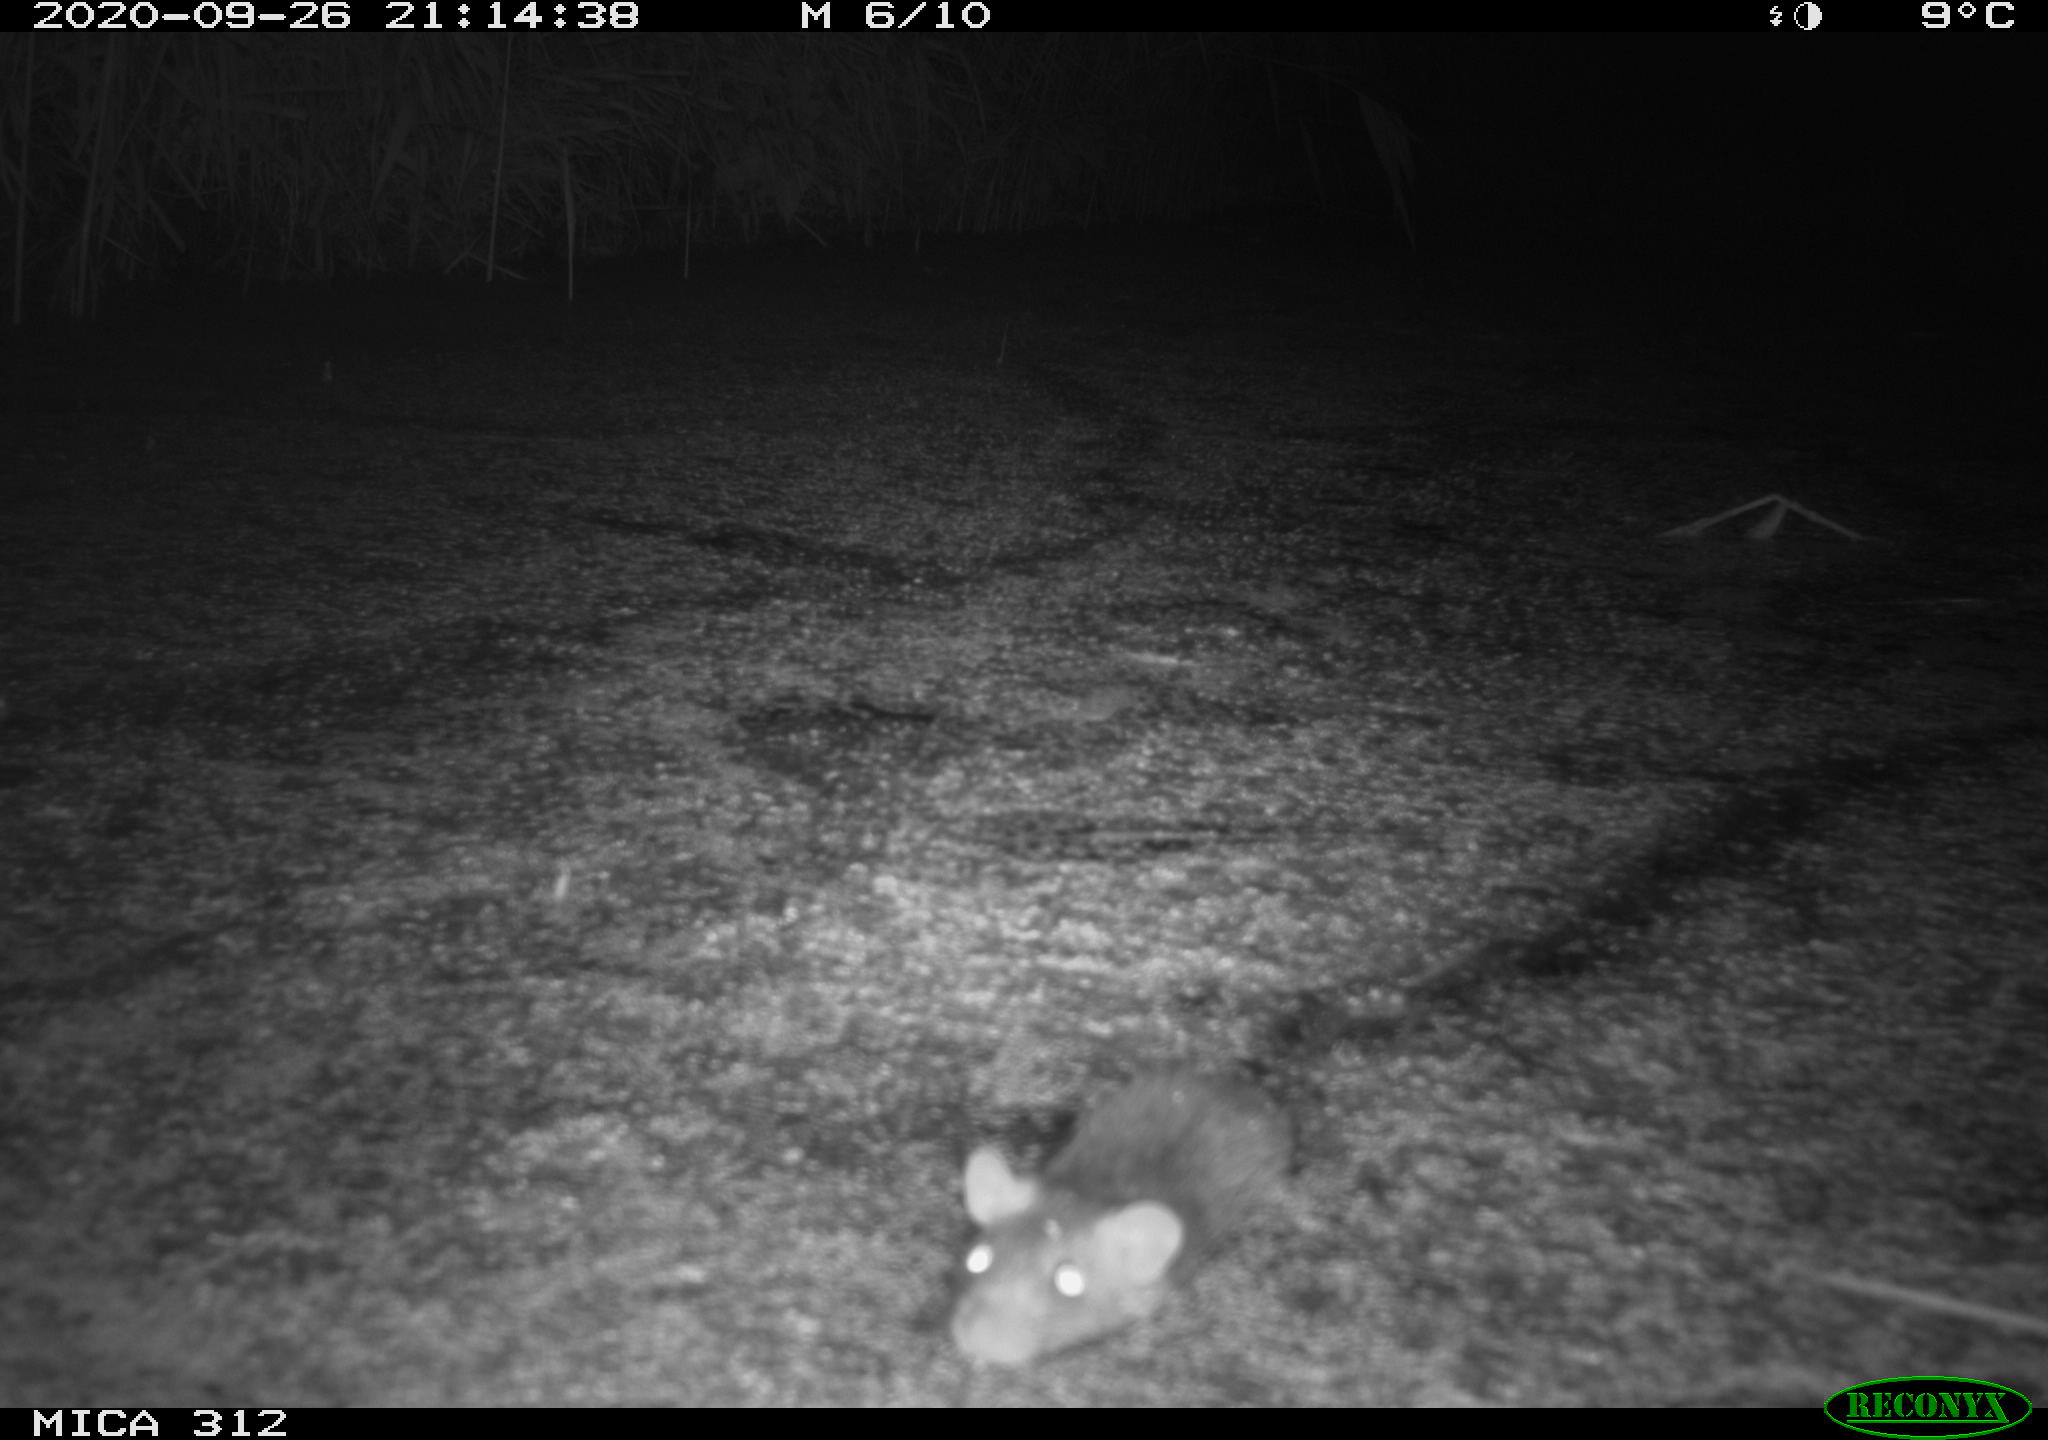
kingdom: Animalia
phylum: Chordata
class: Mammalia
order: Rodentia
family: Muridae
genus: Rattus
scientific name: Rattus norvegicus
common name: Brown rat
